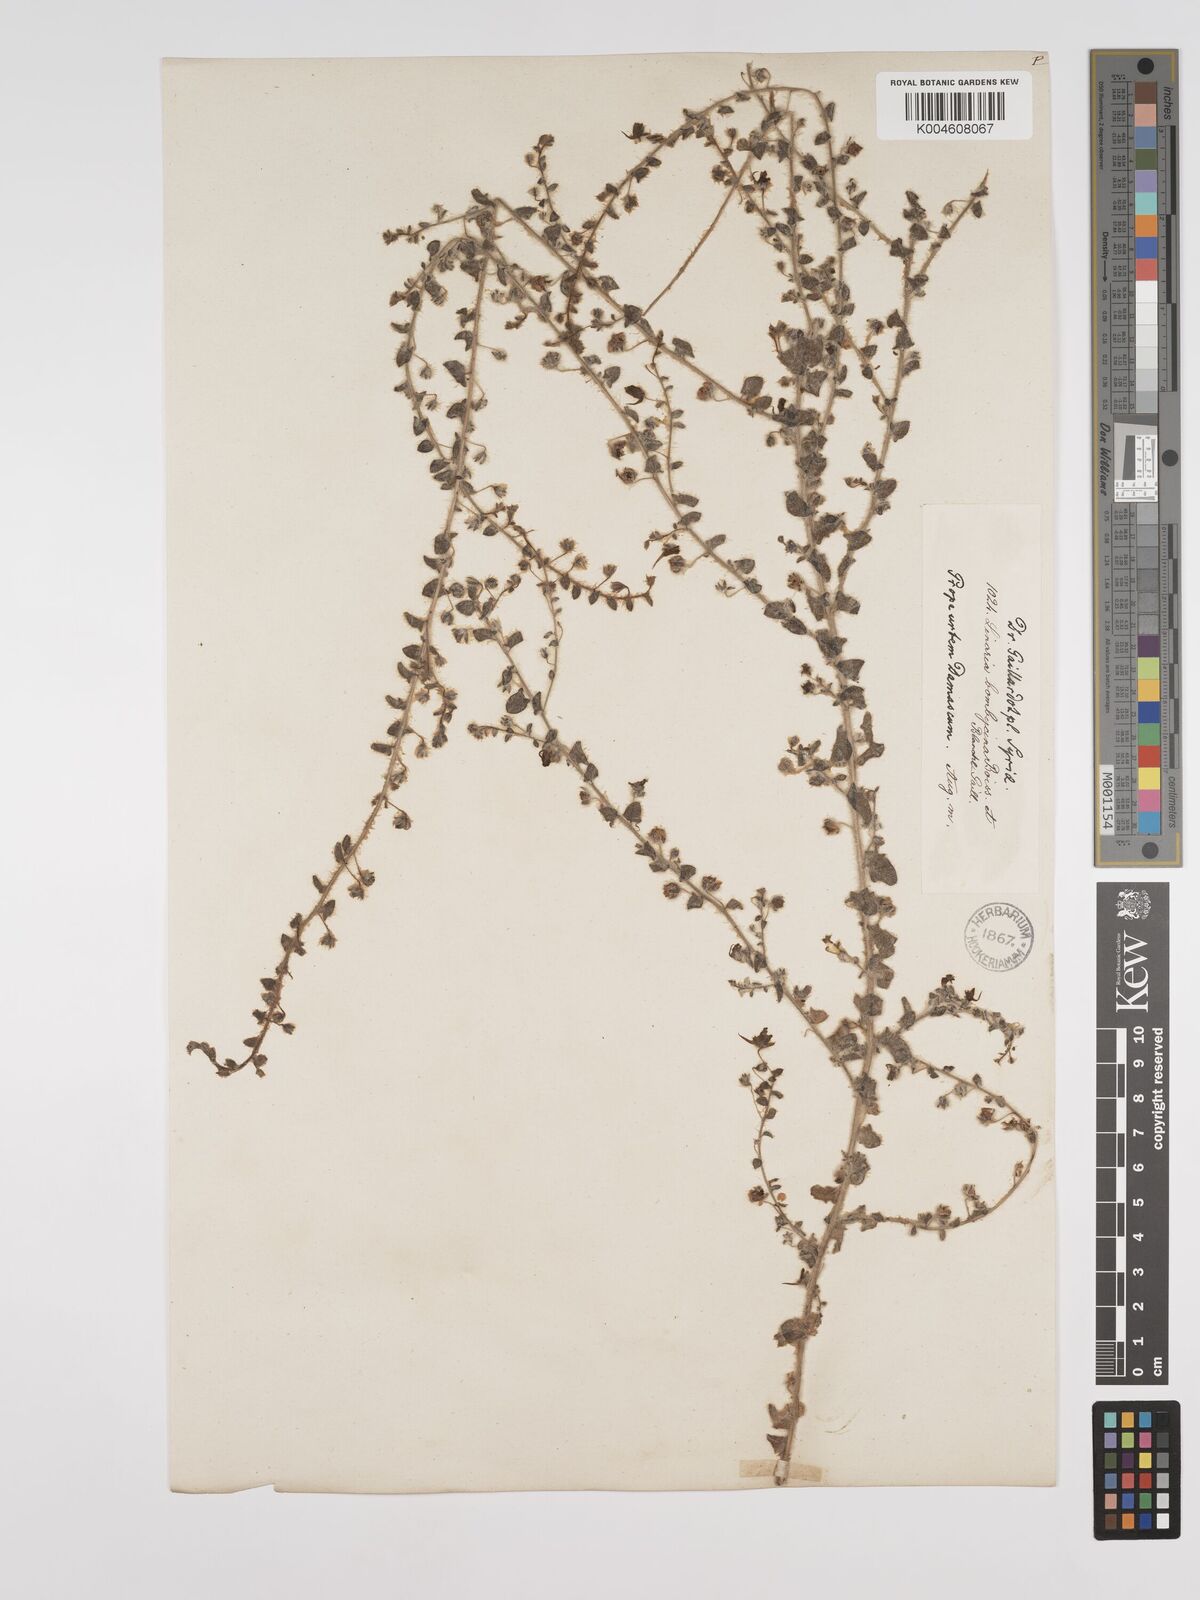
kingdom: Plantae
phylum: Tracheophyta
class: Magnoliopsida
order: Lamiales
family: Plantaginaceae
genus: Kickxia
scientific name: Kickxia elatine
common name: Sharp-leaved fluellen
